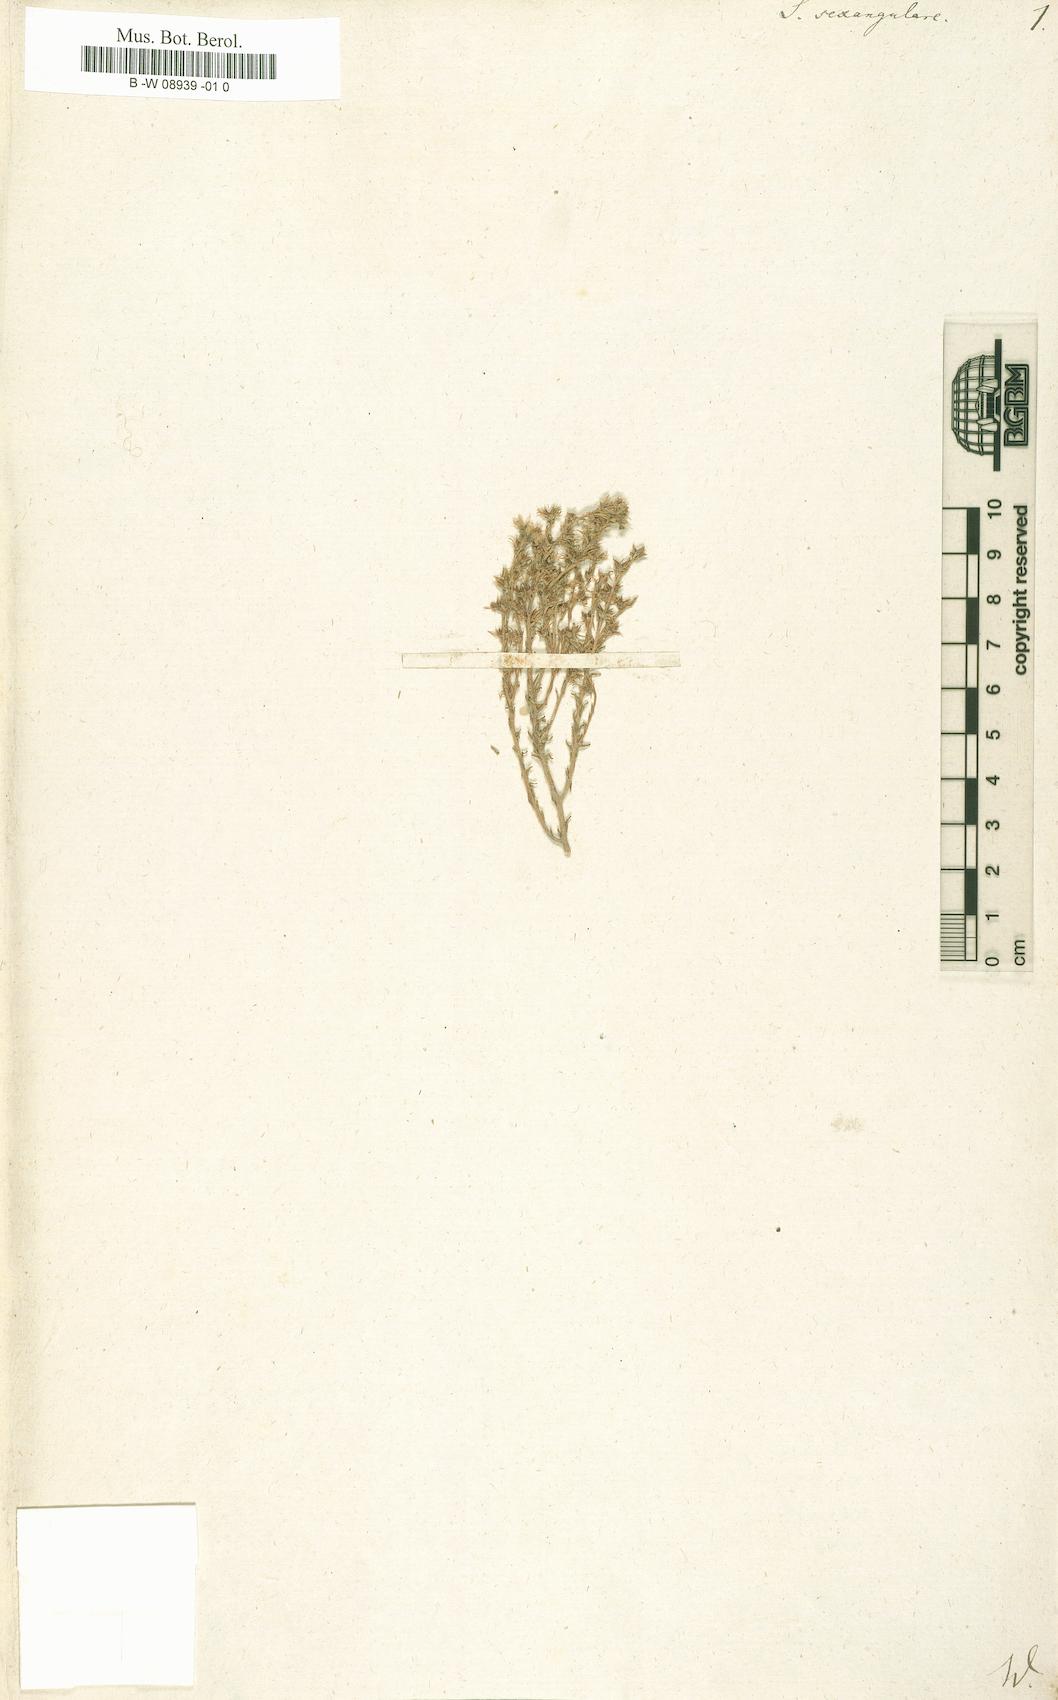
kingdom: Plantae
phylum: Tracheophyta
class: Magnoliopsida
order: Saxifragales
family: Crassulaceae
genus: Sedum
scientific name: Sedum sexangulare
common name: Tasteless stonecrop
